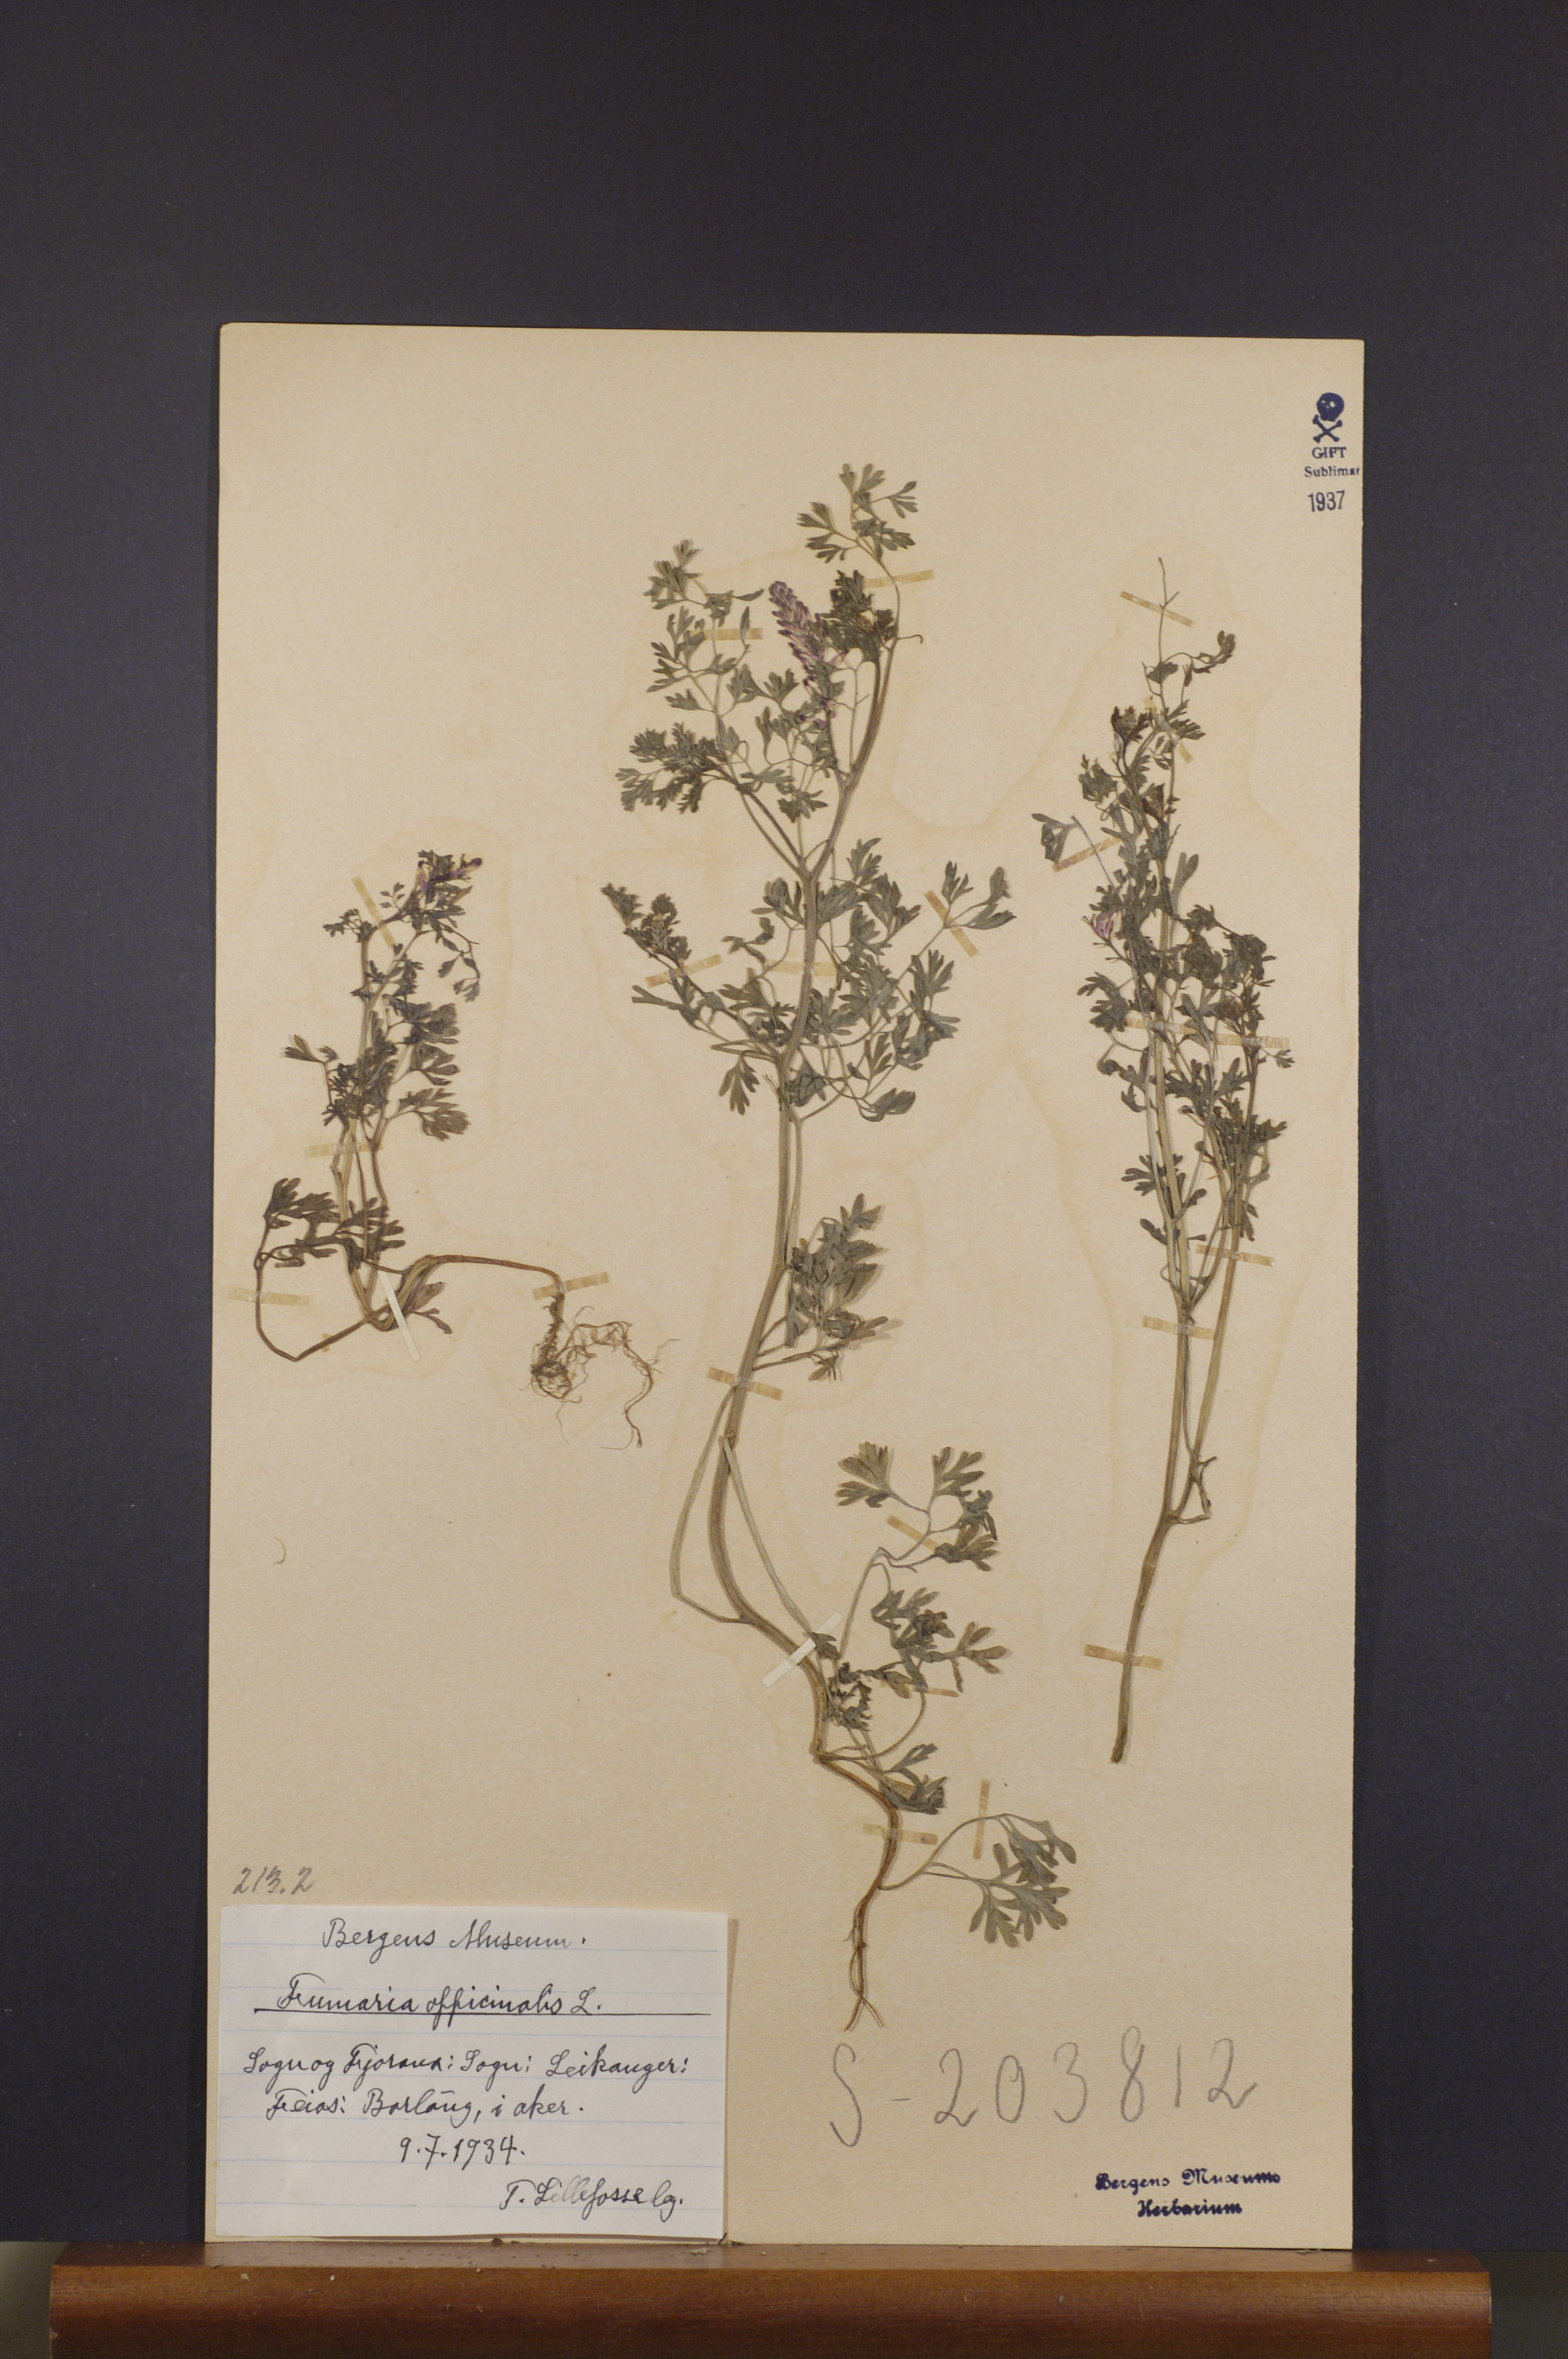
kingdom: Plantae
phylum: Tracheophyta
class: Magnoliopsida
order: Ranunculales
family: Papaveraceae
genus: Fumaria
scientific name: Fumaria officinalis
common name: Common fumitory
